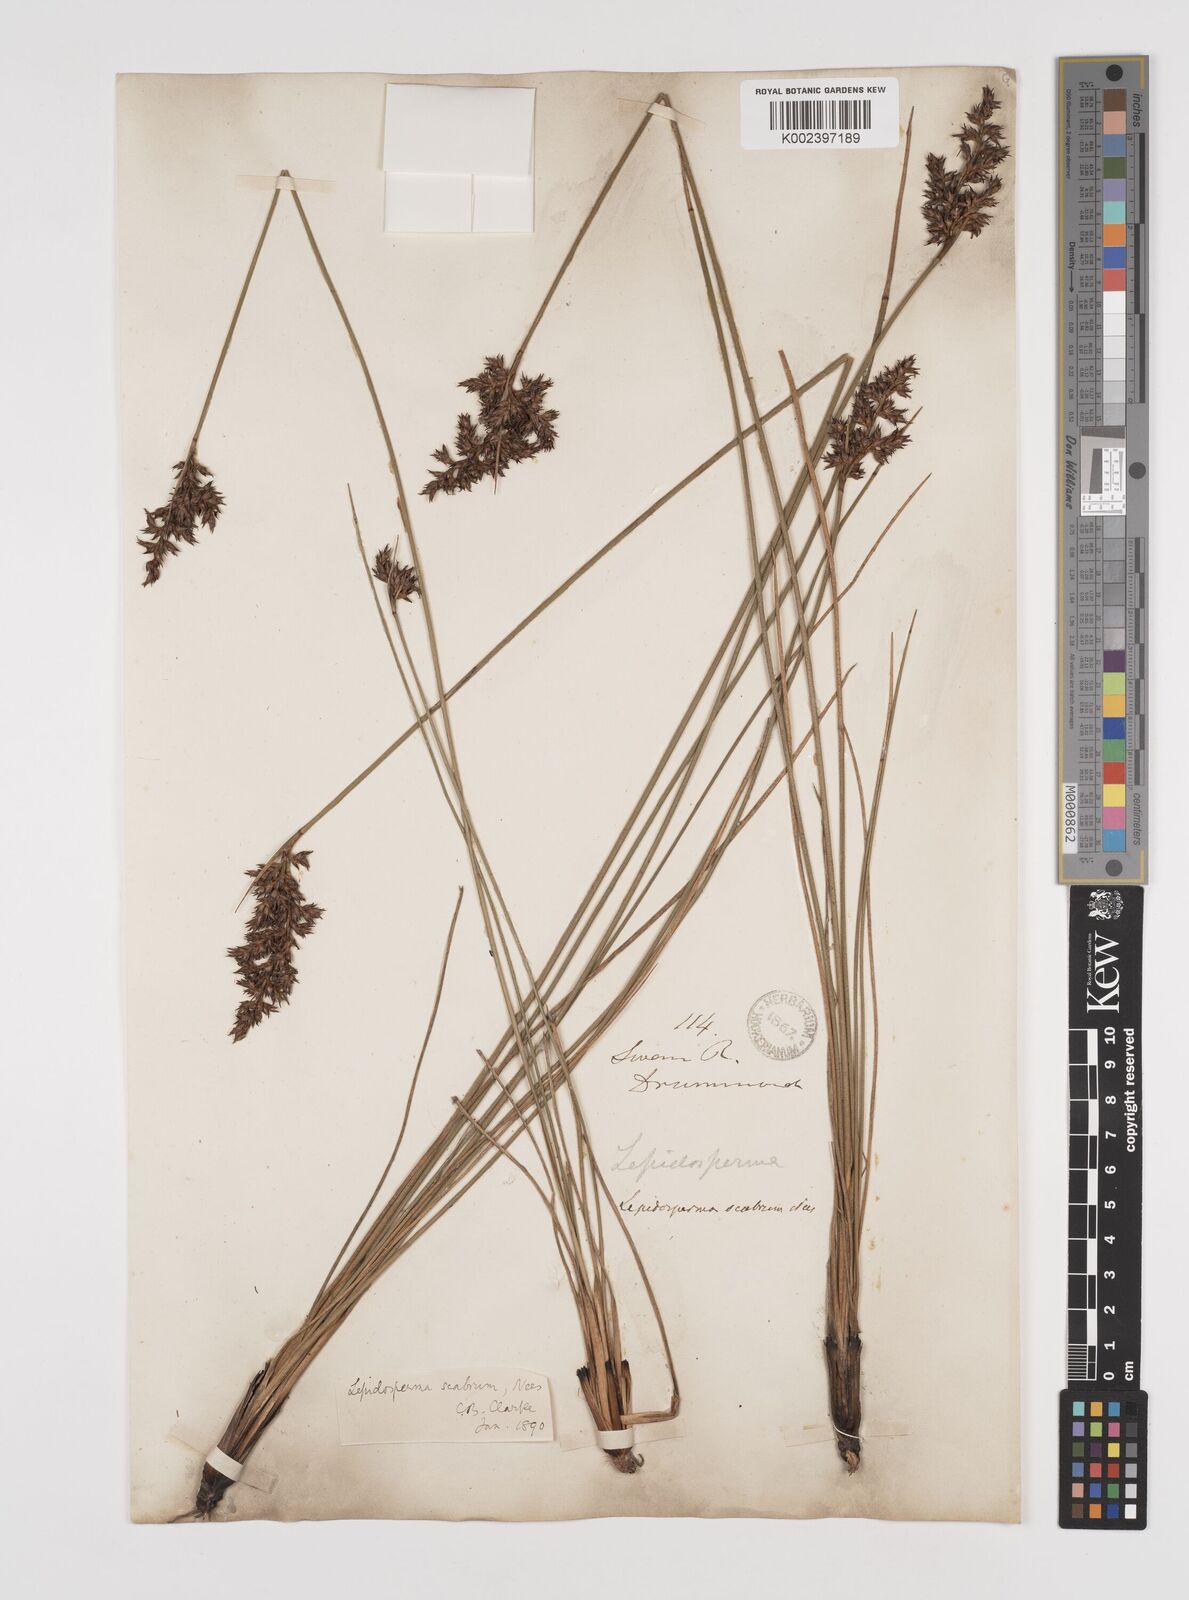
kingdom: Plantae
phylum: Tracheophyta
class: Liliopsida
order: Poales
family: Cyperaceae
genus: Lepidosperma
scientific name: Lepidosperma scabrum
